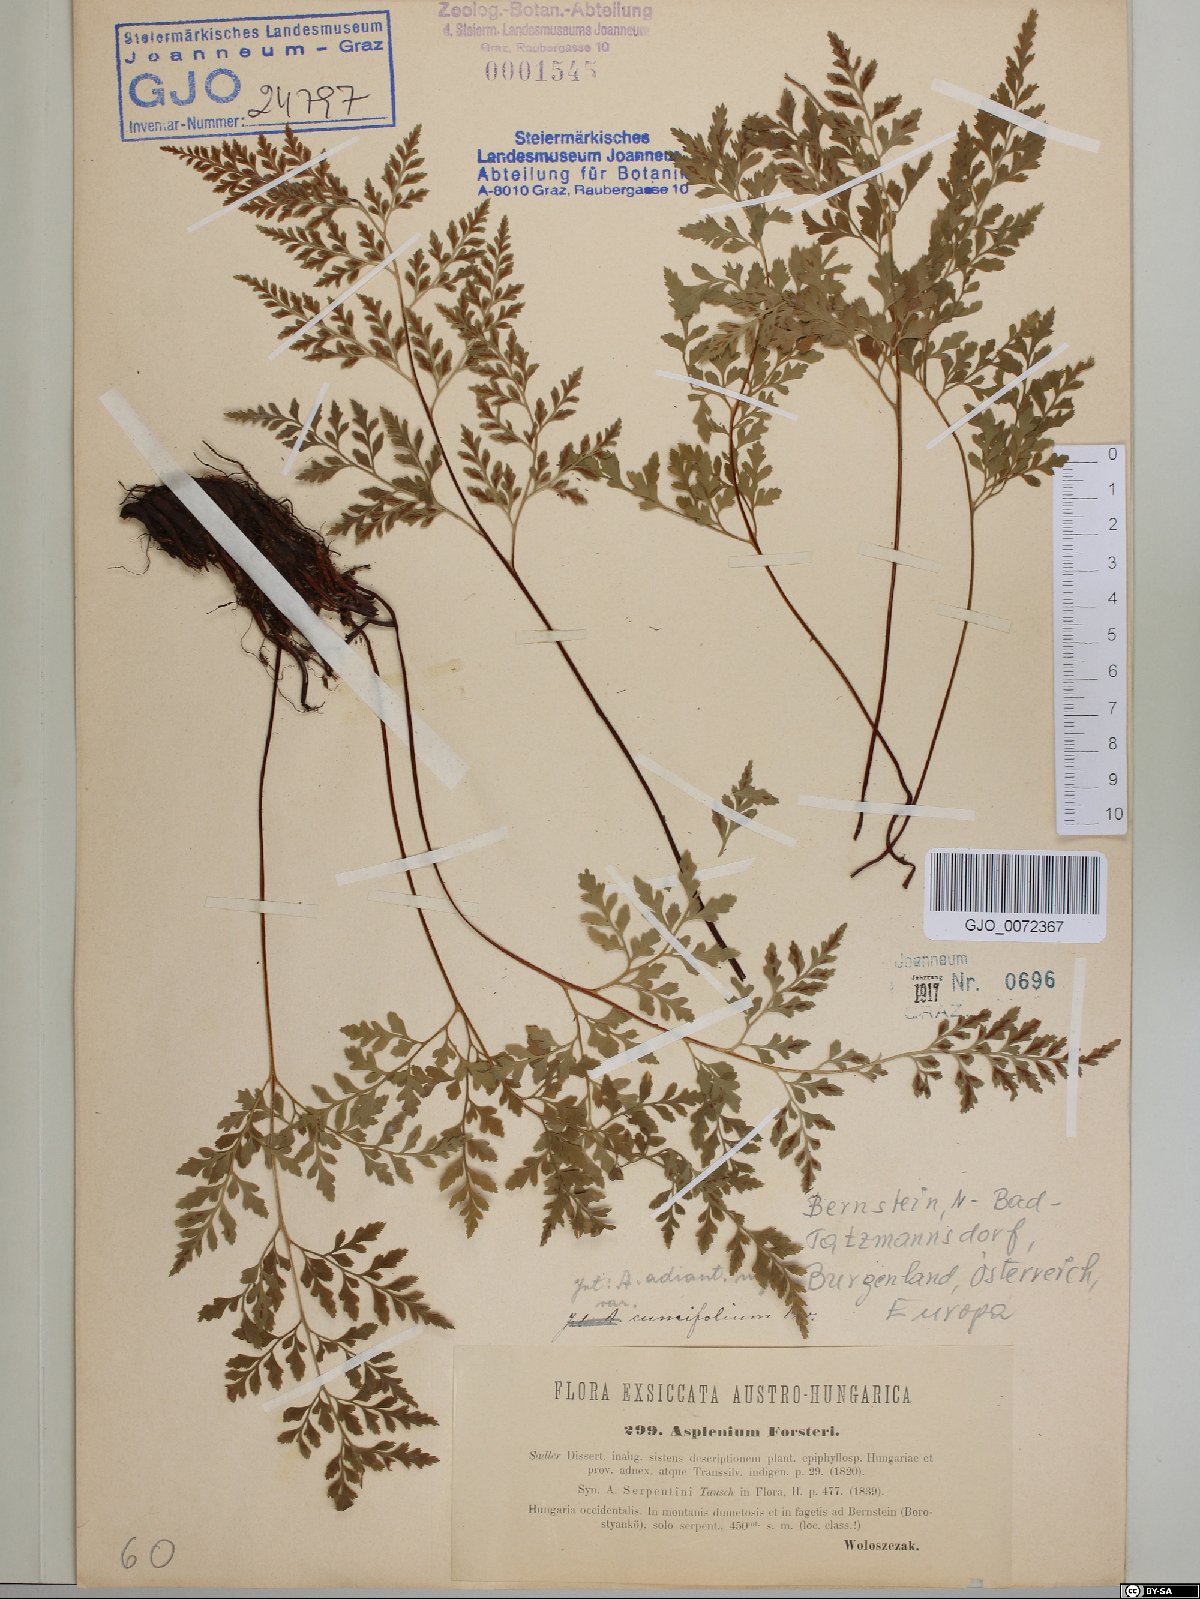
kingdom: Plantae
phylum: Tracheophyta
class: Polypodiopsida
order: Polypodiales
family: Aspleniaceae
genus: Asplenium
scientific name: Asplenium cuneifolium
